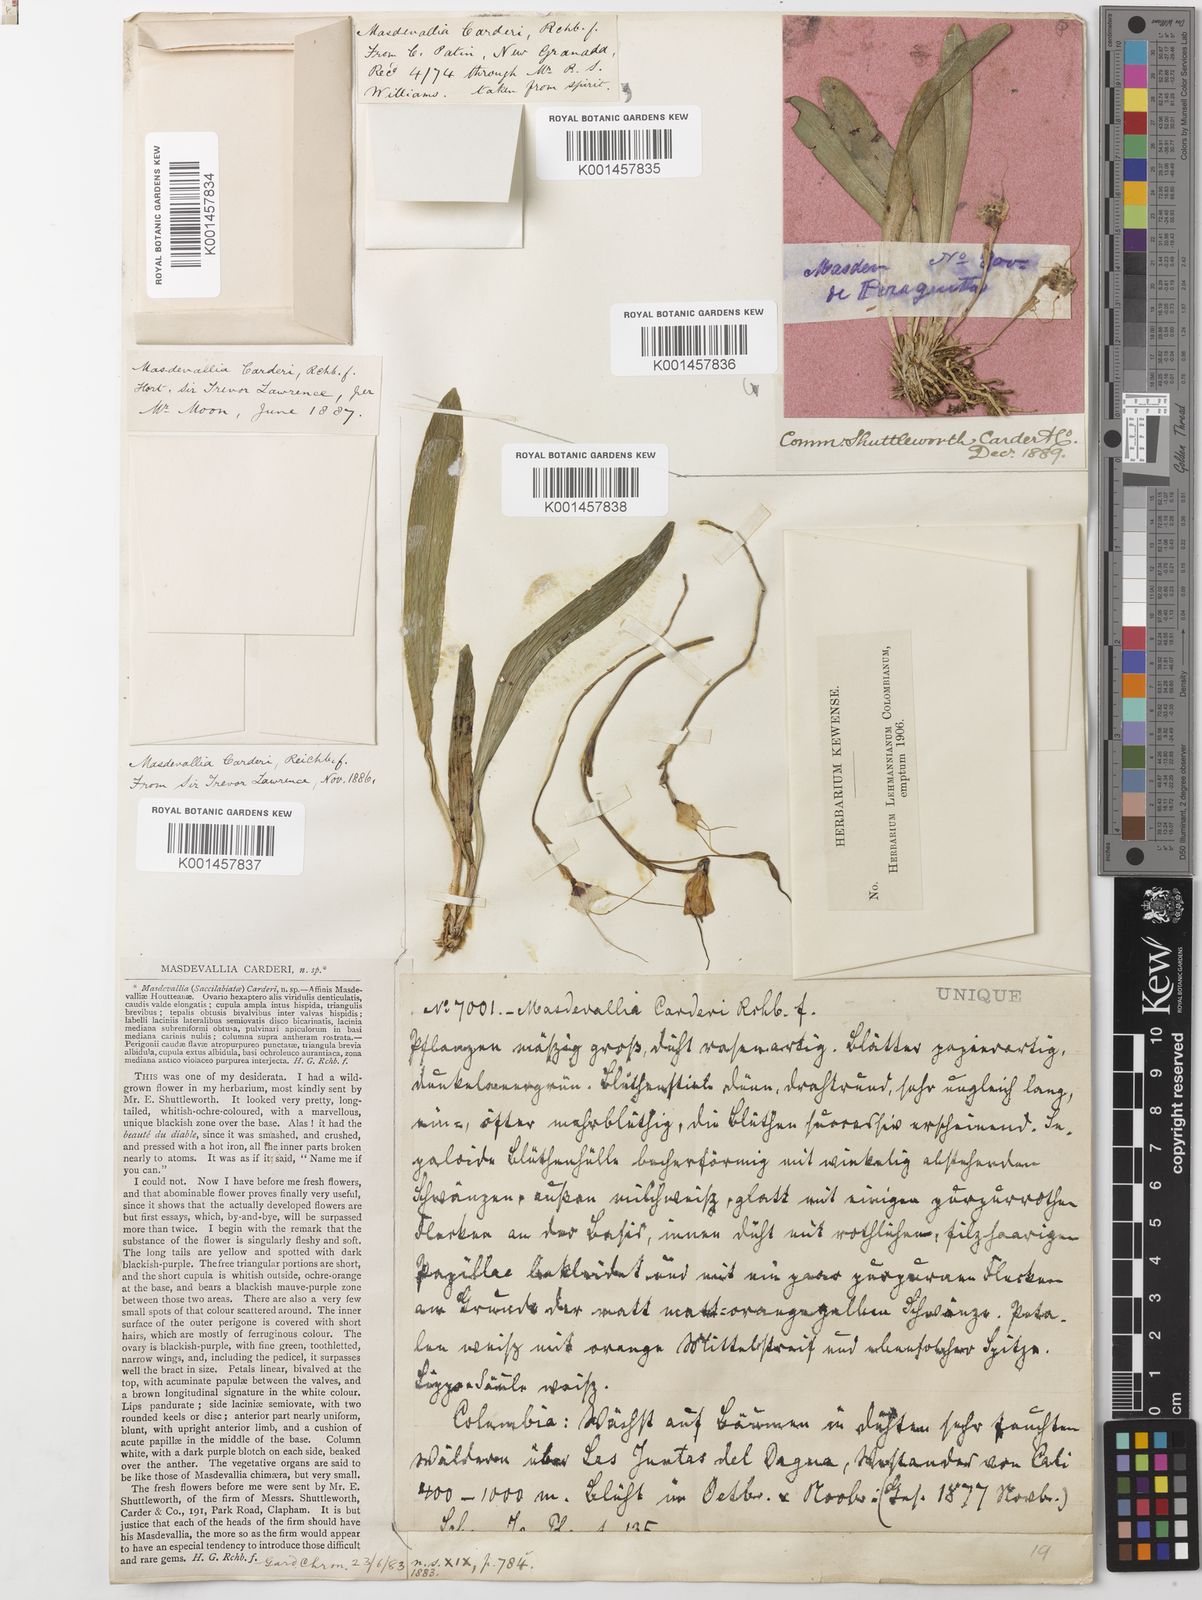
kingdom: Plantae
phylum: Tracheophyta
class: Liliopsida
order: Asparagales
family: Orchidaceae
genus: Dracula
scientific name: Dracula inaequalis
